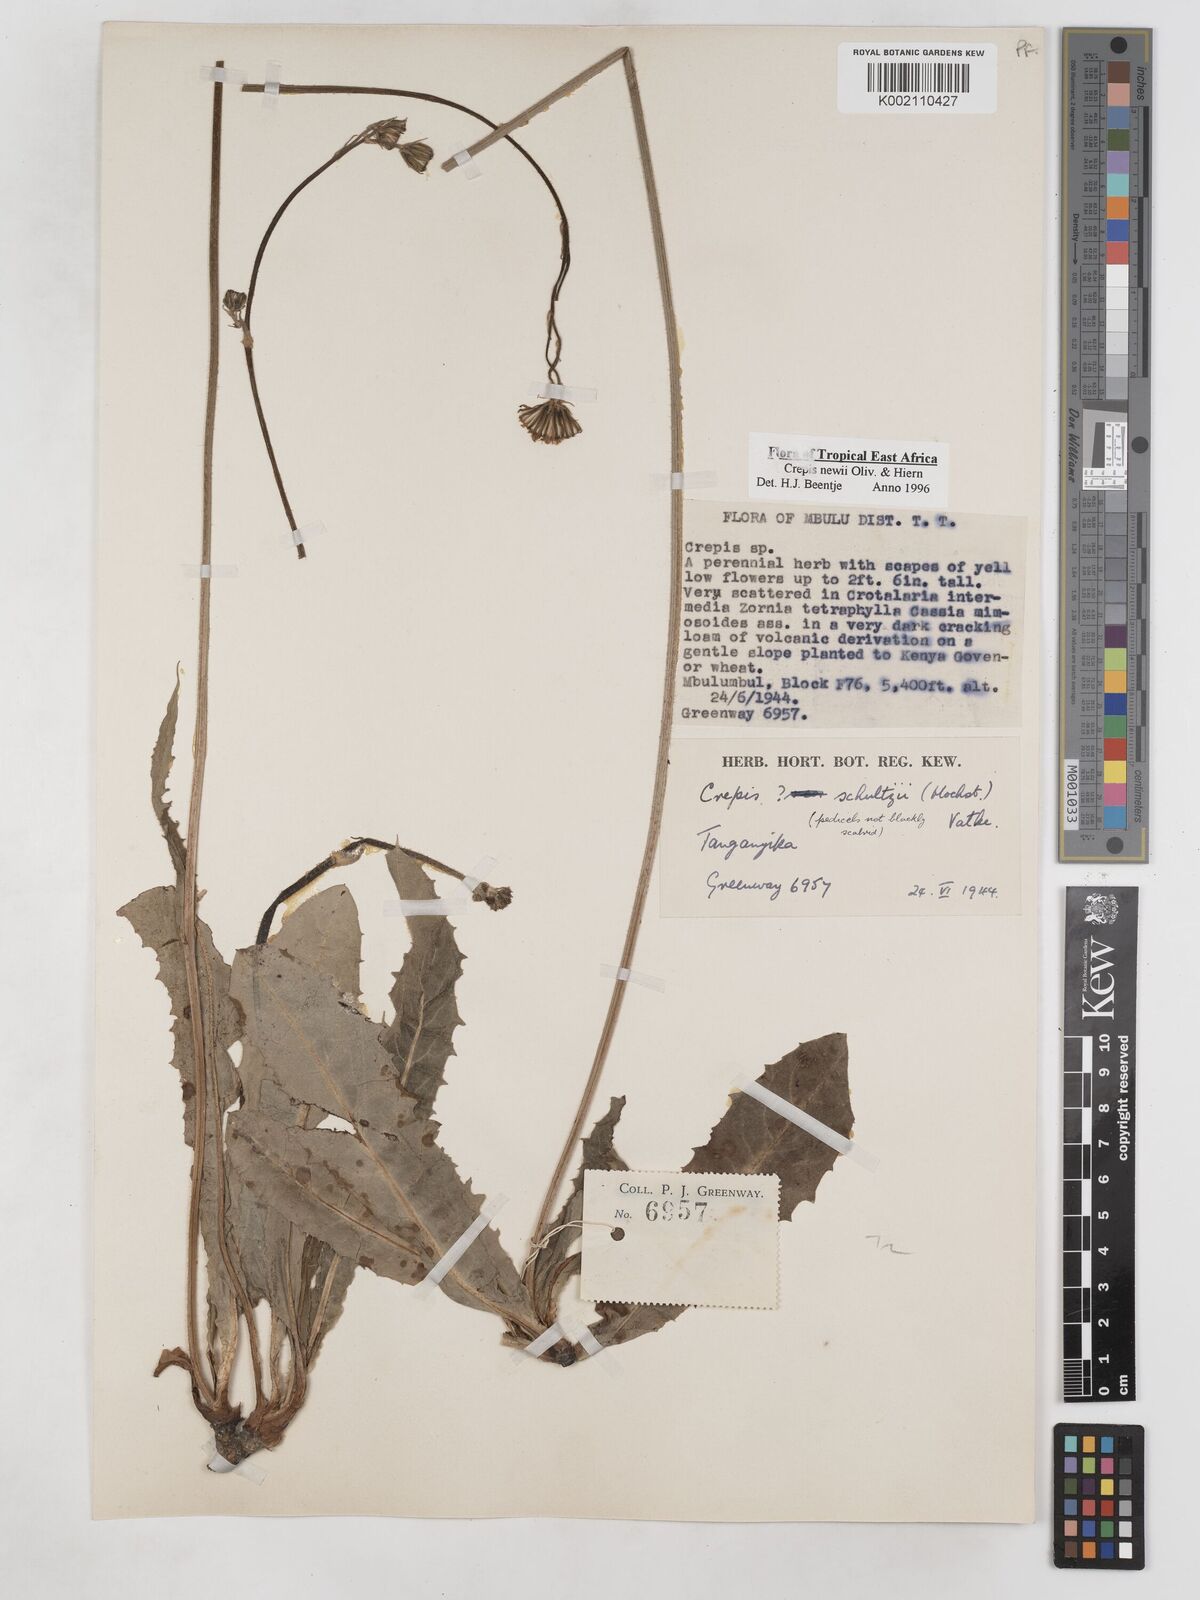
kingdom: Plantae
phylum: Tracheophyta
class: Magnoliopsida
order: Asterales
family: Asteraceae
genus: Crepis
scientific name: Crepis hypochoeridea
